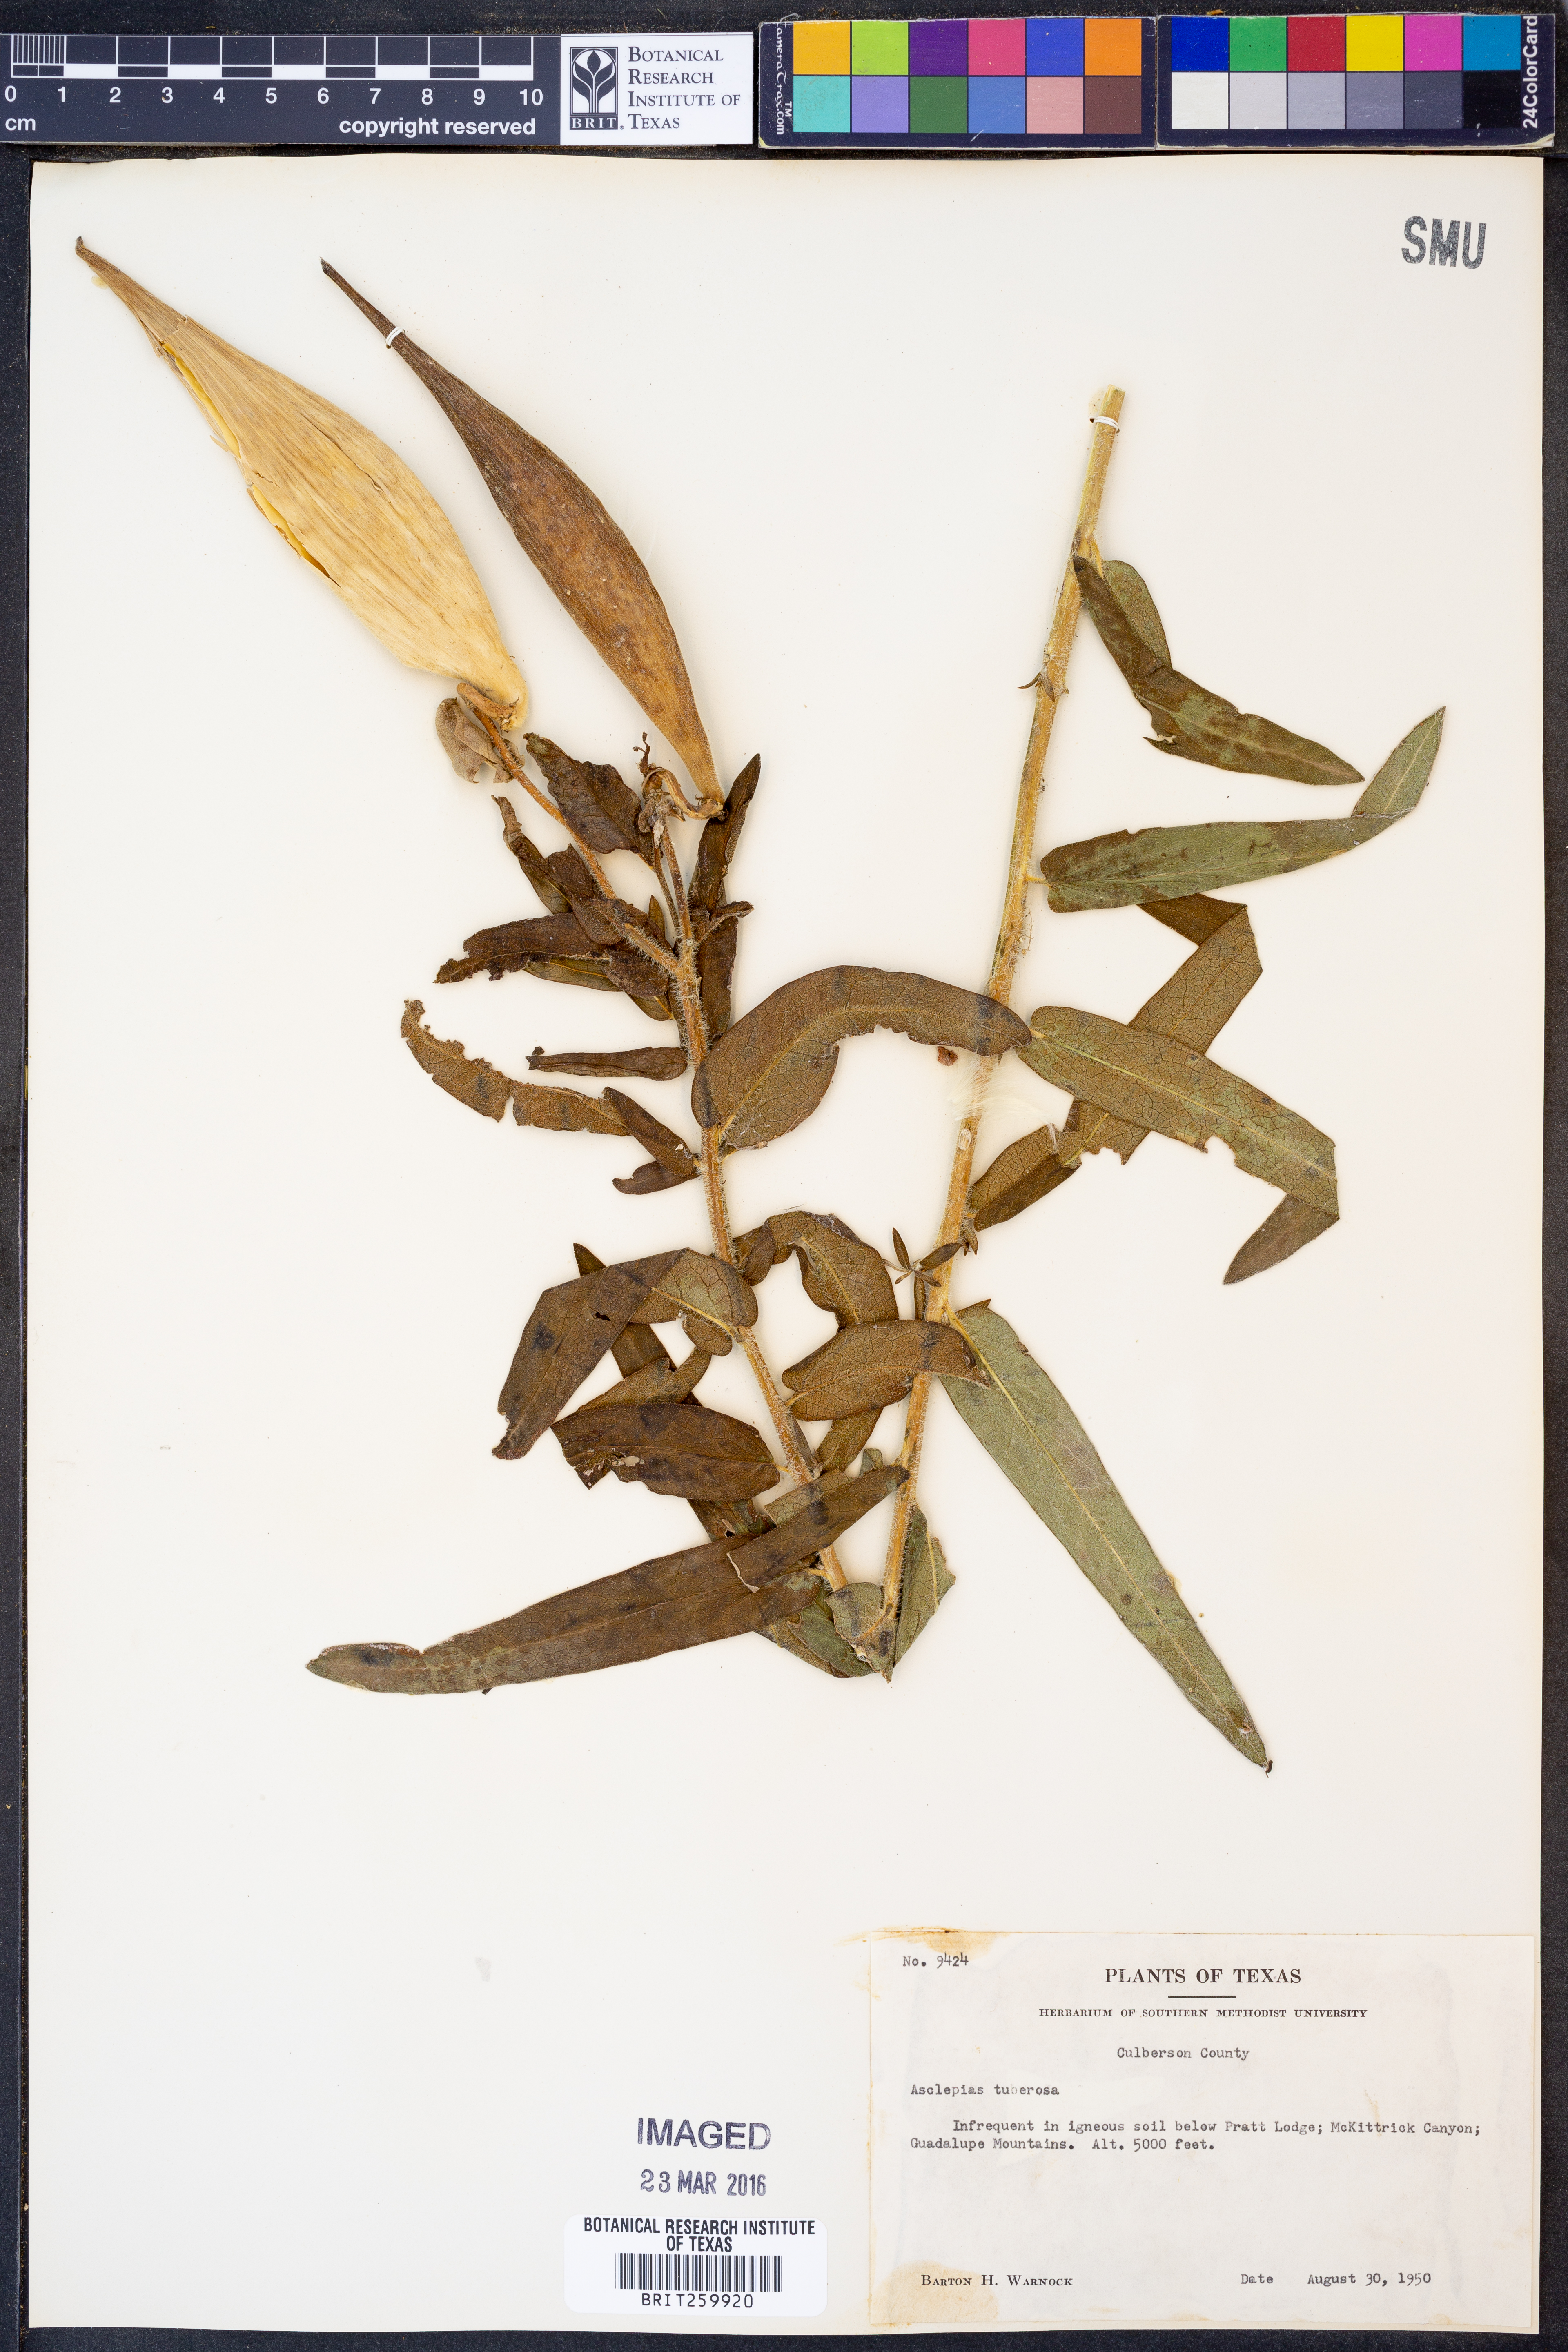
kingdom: Plantae
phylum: Tracheophyta
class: Magnoliopsida
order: Gentianales
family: Apocynaceae
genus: Asclepias
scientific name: Asclepias tuberosa
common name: Butterfly milkweed
